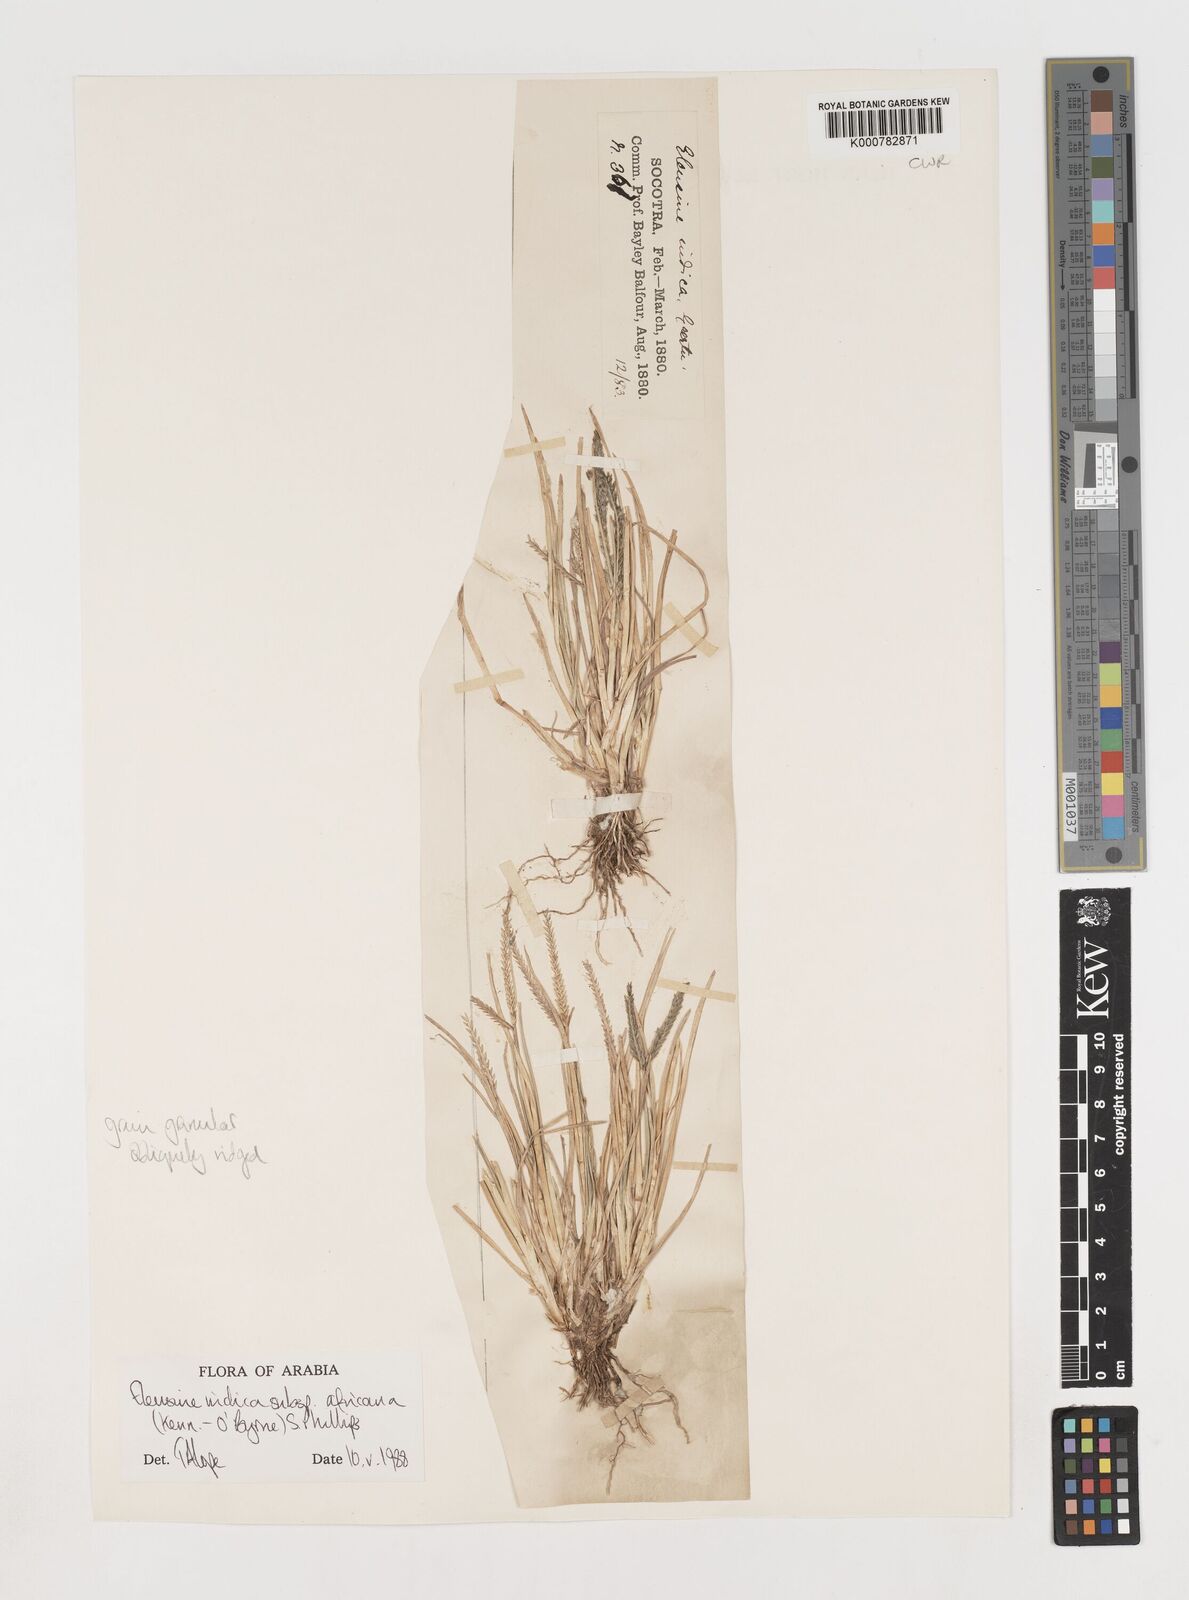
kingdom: Plantae
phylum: Tracheophyta
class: Liliopsida
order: Poales
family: Poaceae
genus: Eleusine
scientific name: Eleusine africana
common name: Wild african finger millet
